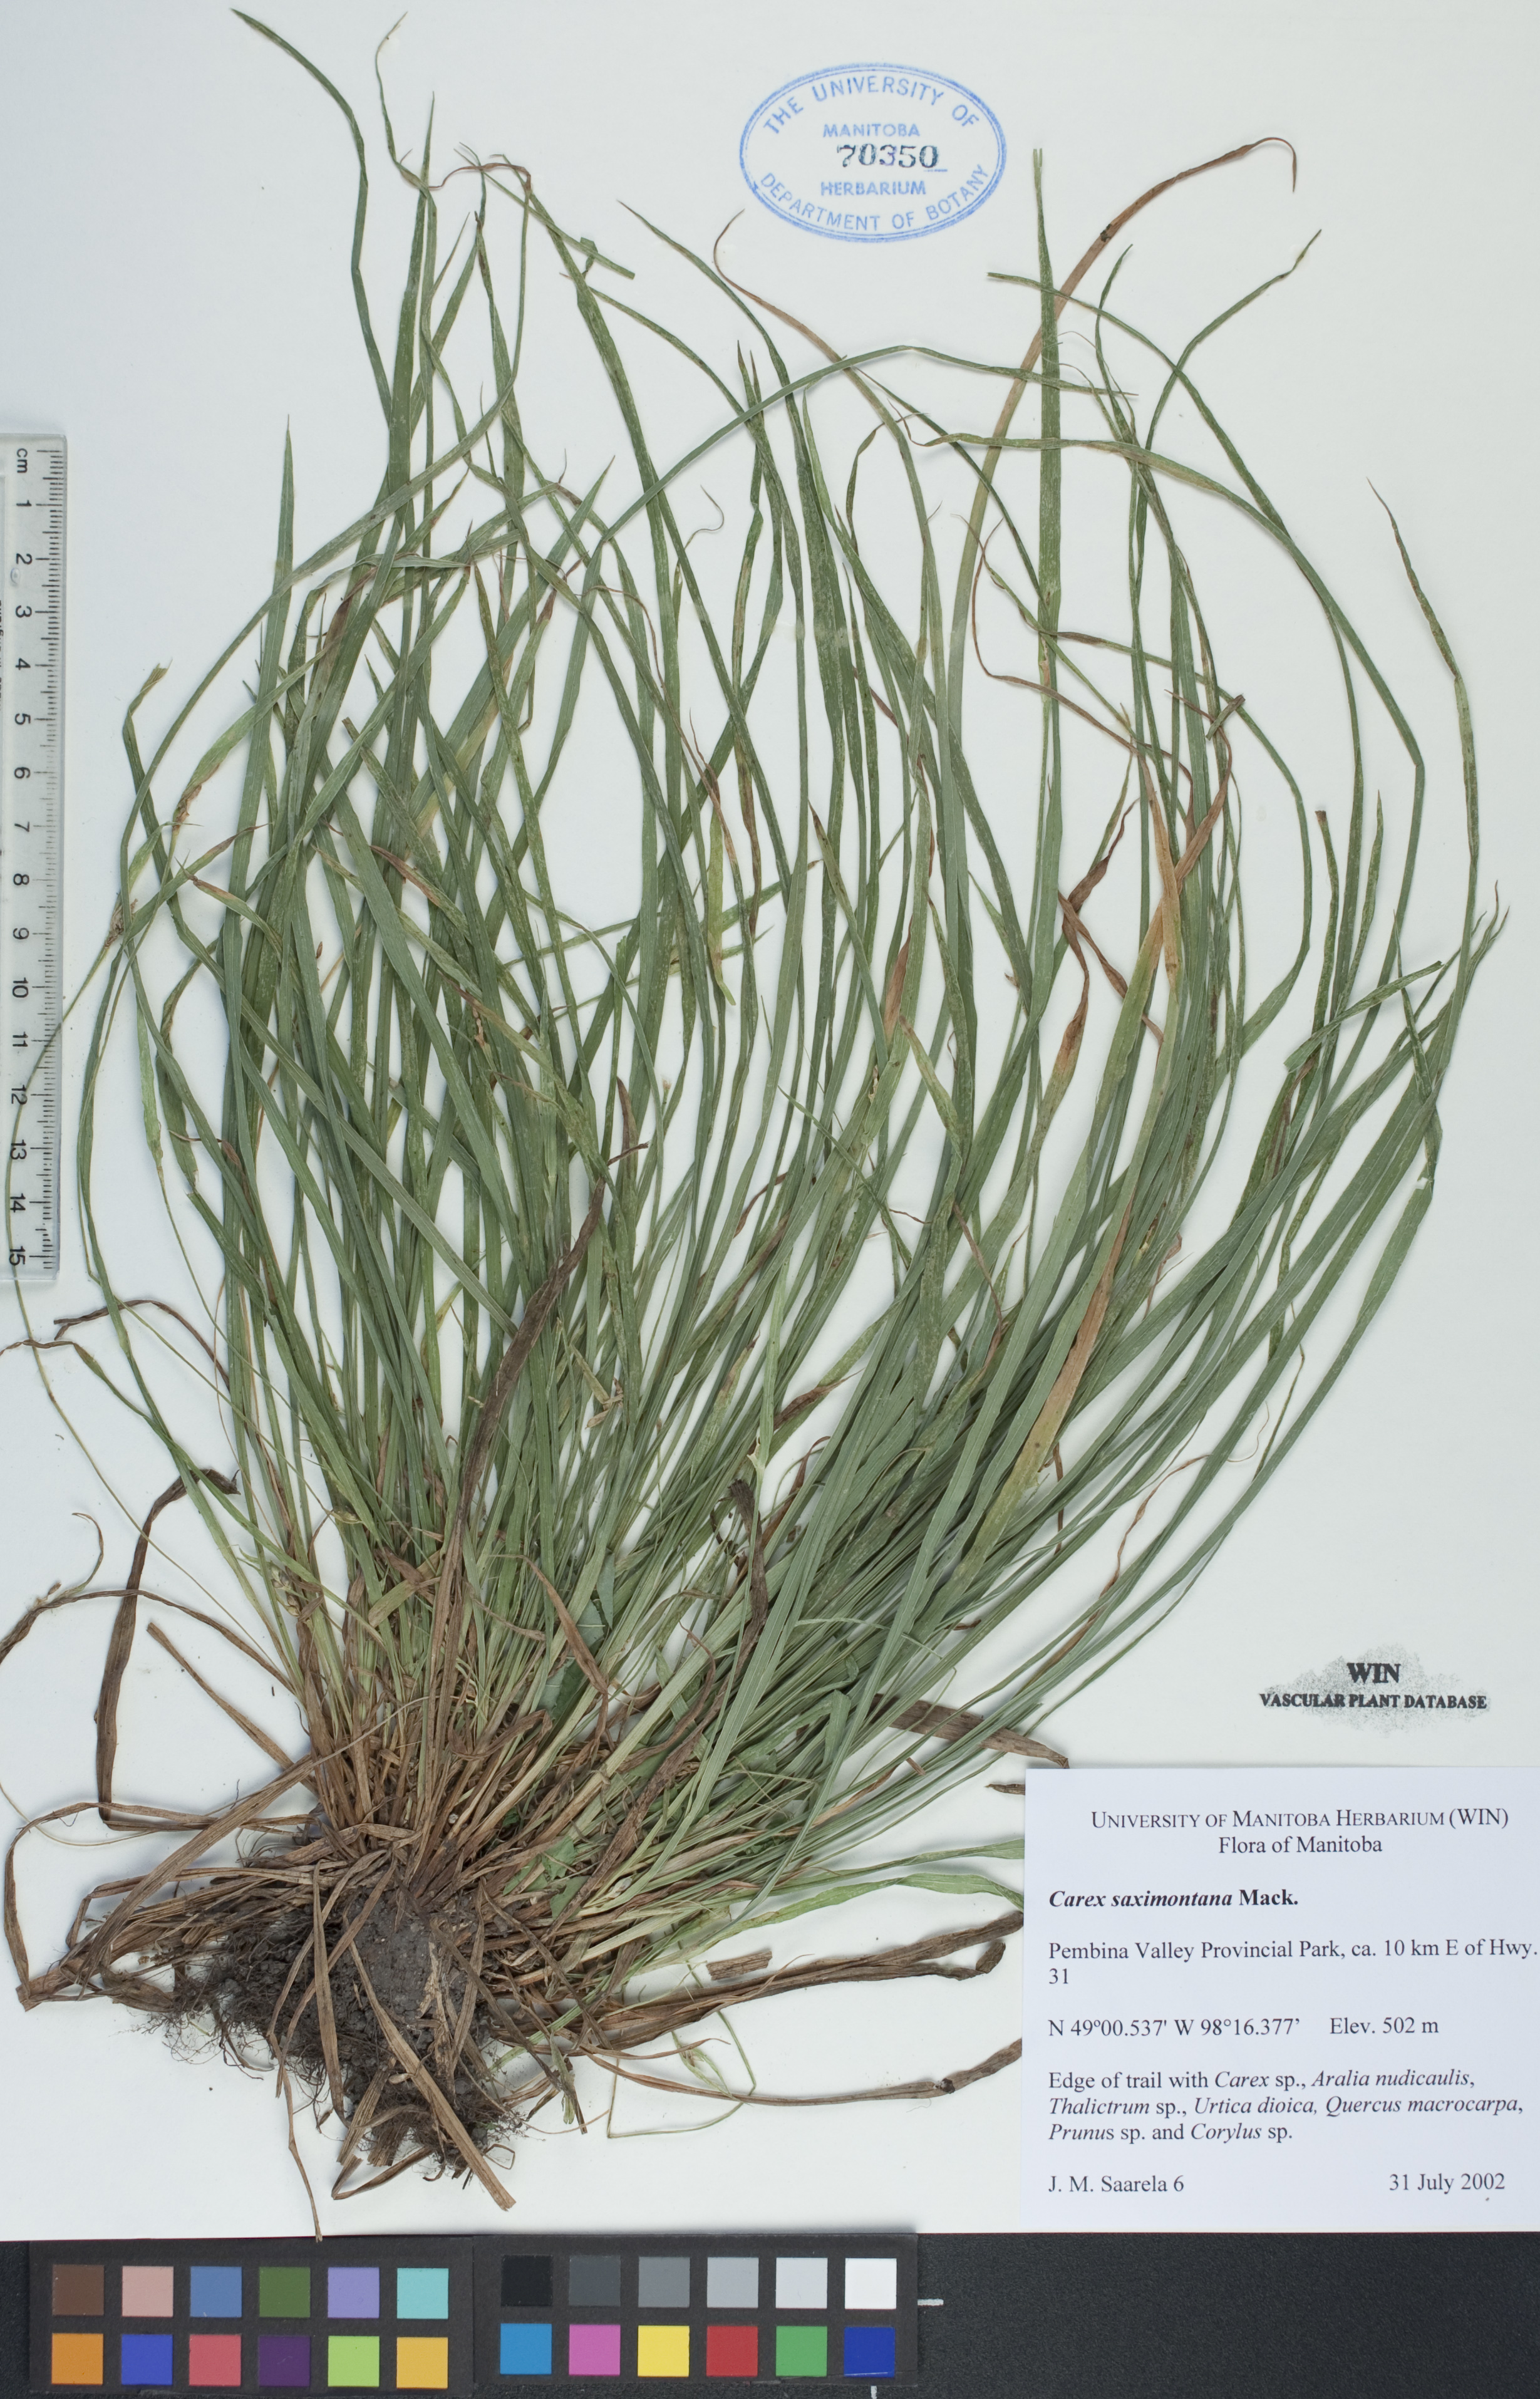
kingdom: Plantae
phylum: Tracheophyta
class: Liliopsida
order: Poales
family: Cyperaceae
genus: Carex
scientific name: Carex saximontana
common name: Rocky mountain sedge
